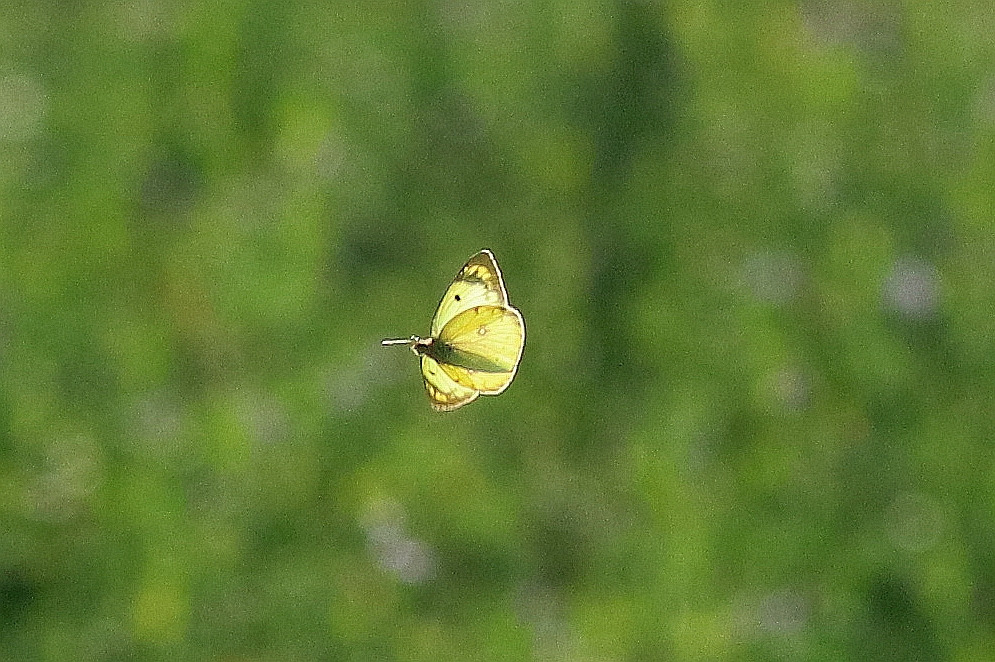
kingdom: Animalia
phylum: Arthropoda
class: Insecta
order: Lepidoptera
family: Pieridae
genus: Colias
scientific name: Colias hyale
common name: Gul høsommerfugl
